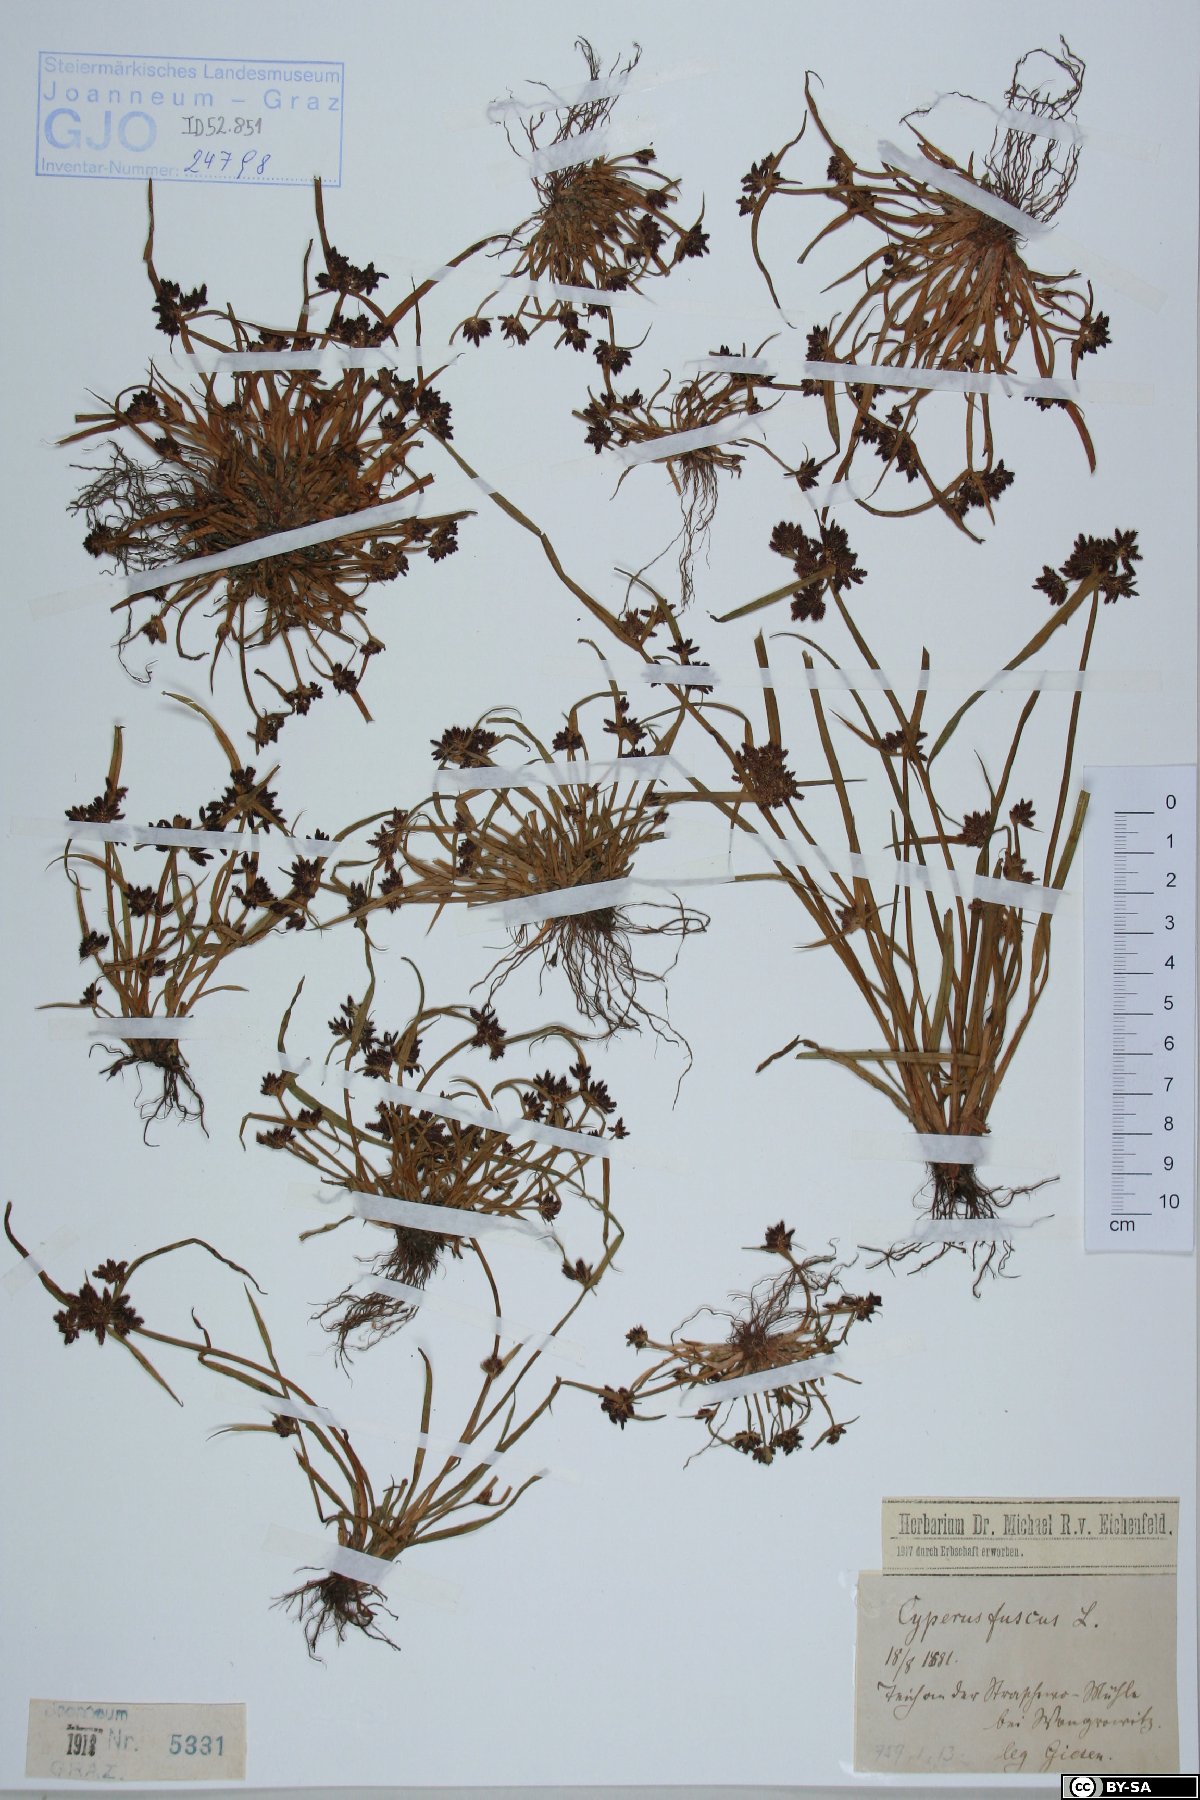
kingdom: Plantae
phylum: Tracheophyta
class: Liliopsida
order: Poales
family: Cyperaceae
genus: Cyperus
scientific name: Cyperus fuscus
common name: Brown galingale
